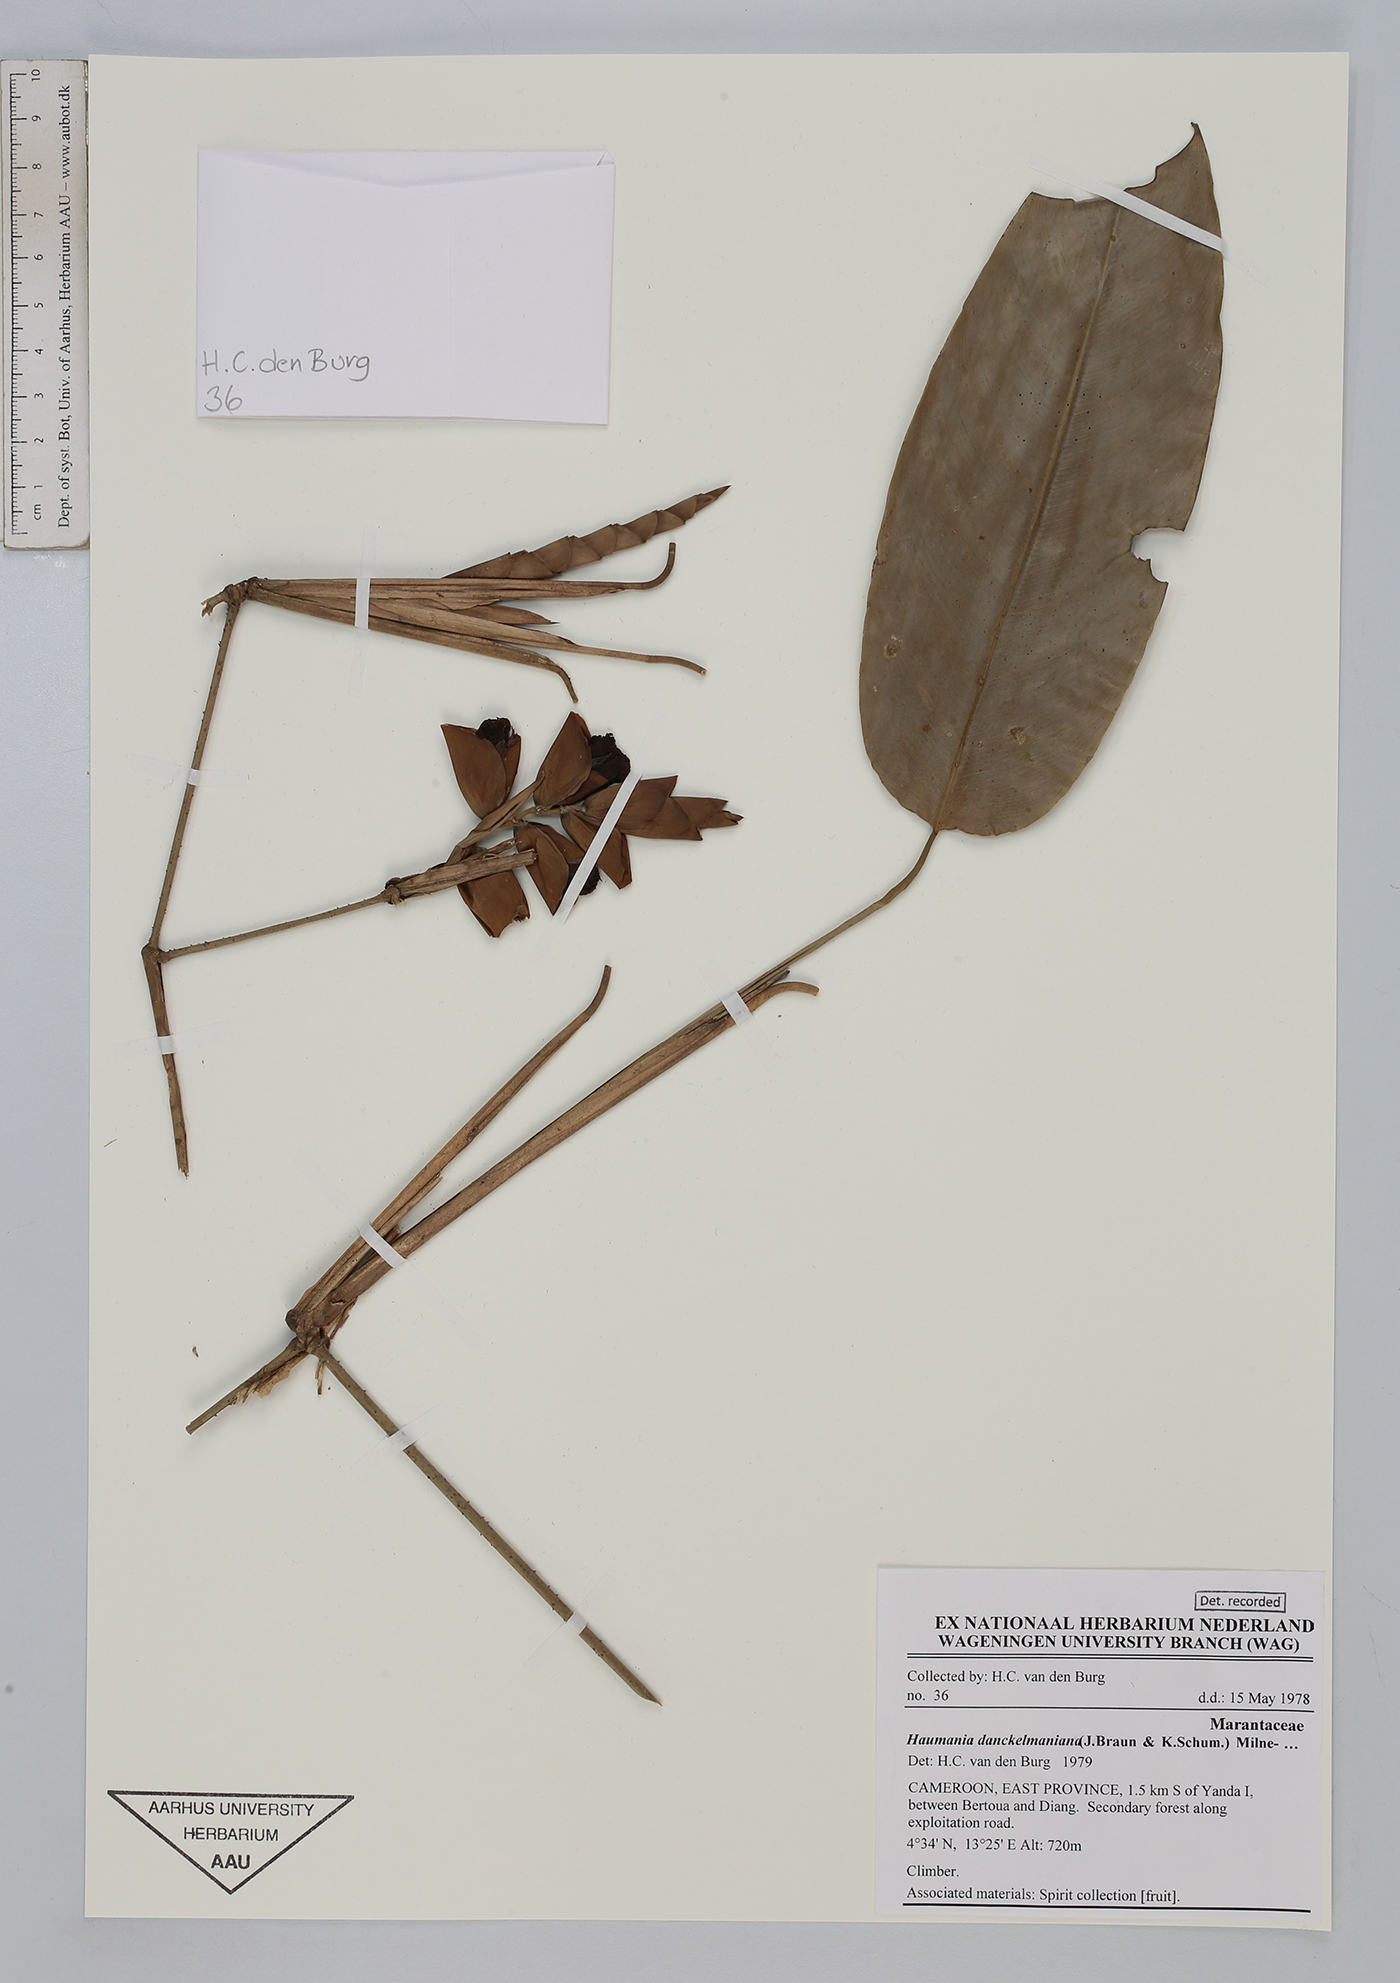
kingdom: Plantae
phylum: Tracheophyta
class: Liliopsida
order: Zingiberales
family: Marantaceae
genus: Haumania
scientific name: Haumania danckelmaniana
